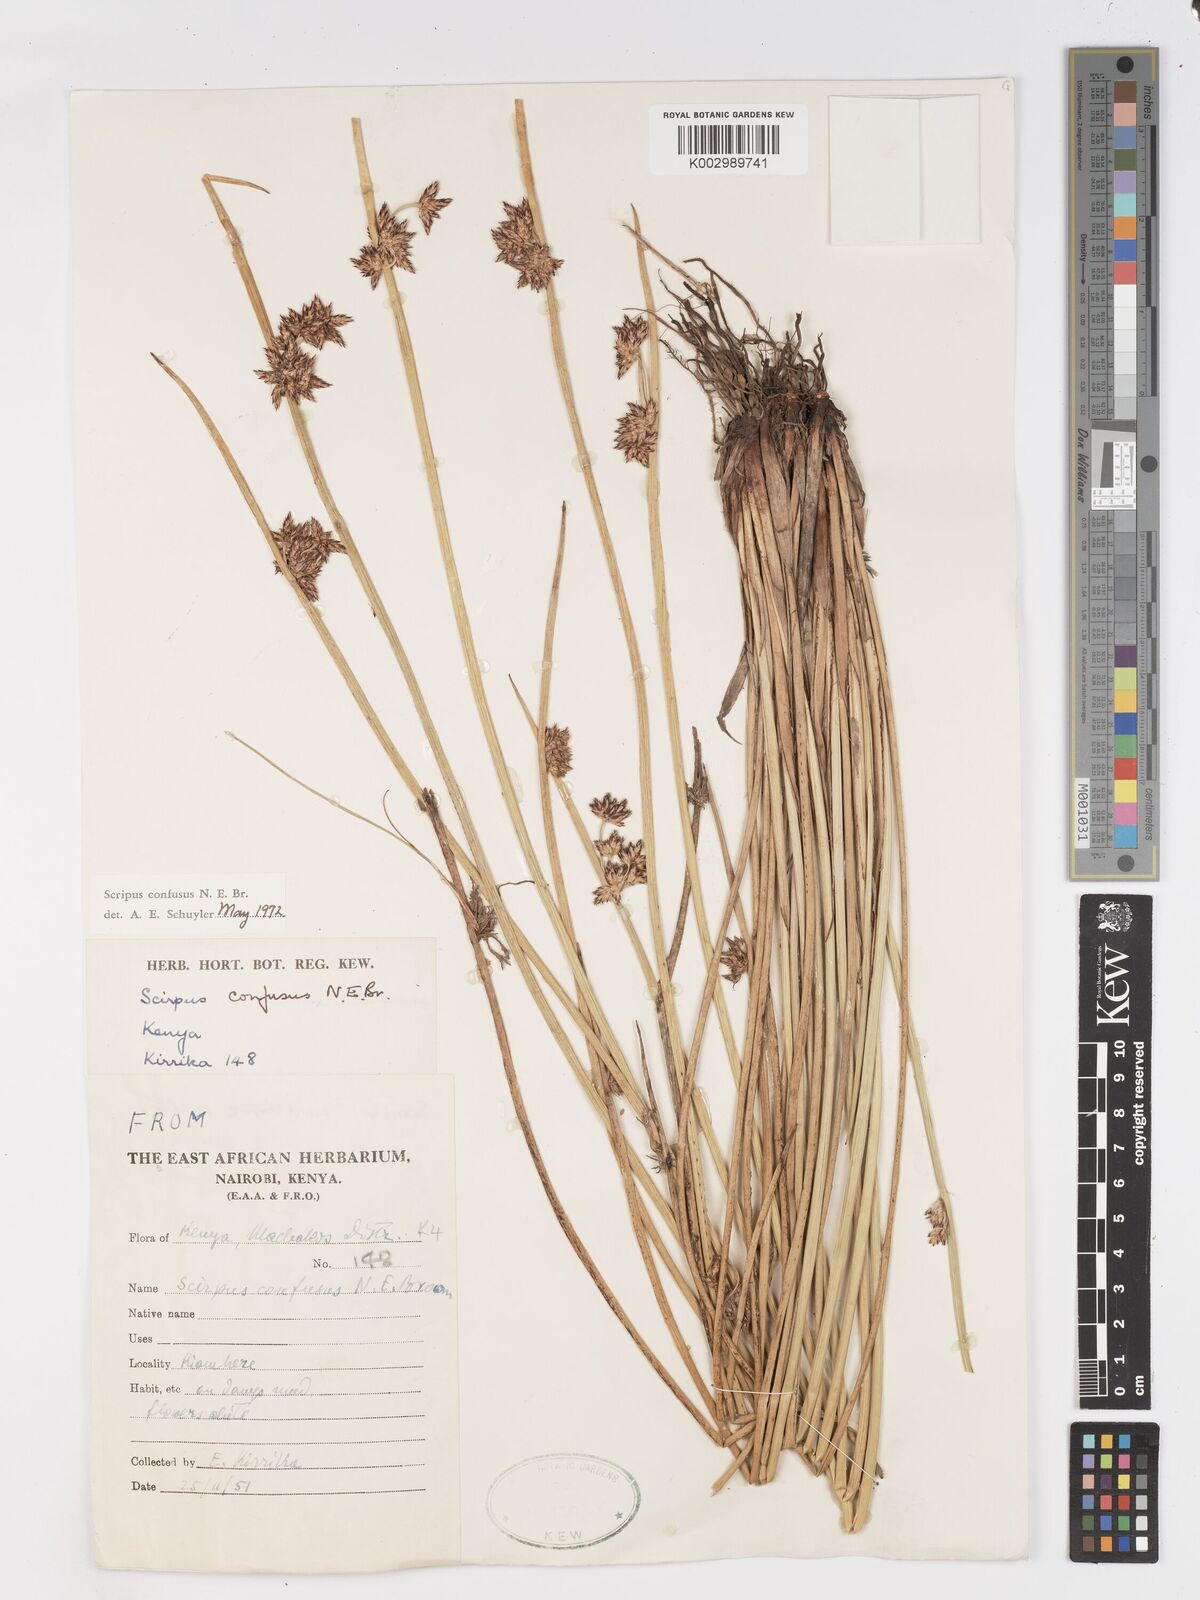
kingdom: Plantae
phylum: Tracheophyta
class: Liliopsida
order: Poales
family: Cyperaceae
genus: Schoenoplectiella
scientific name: Schoenoplectiella confusa
